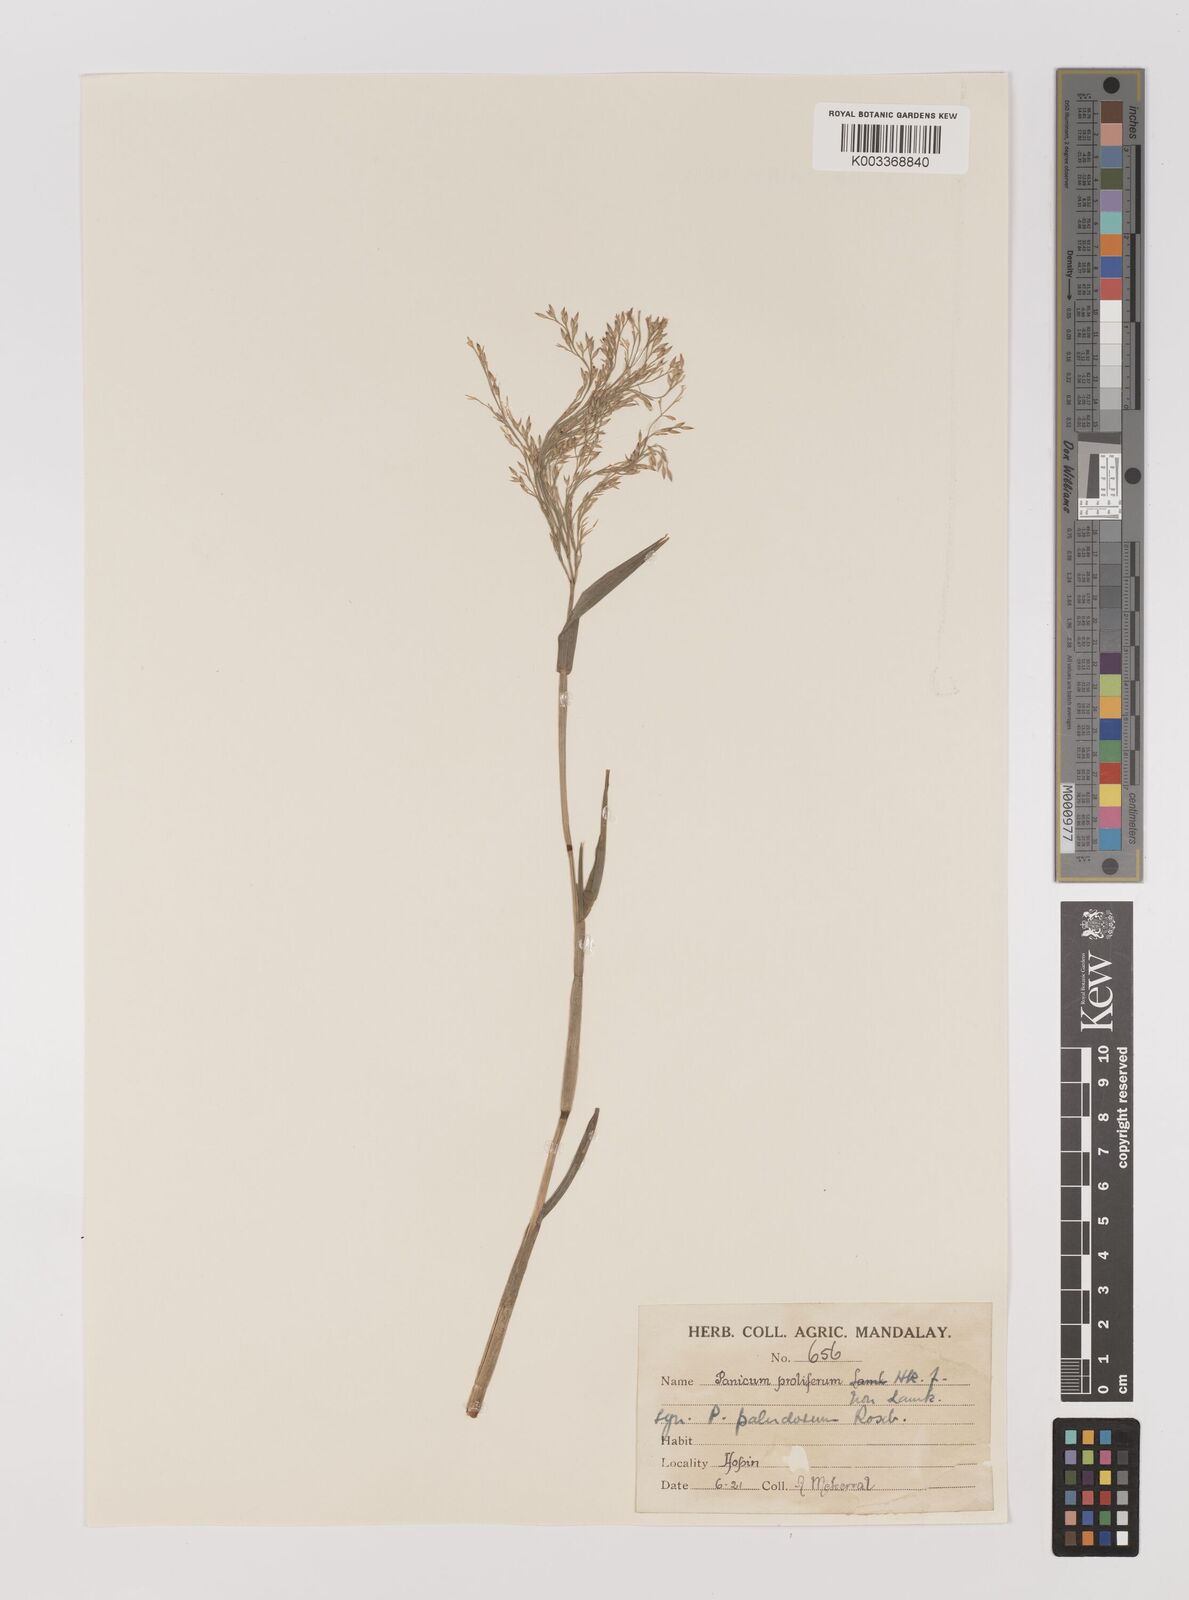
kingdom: Plantae
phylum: Tracheophyta
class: Liliopsida
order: Poales
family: Poaceae
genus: Louisiella
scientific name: Louisiella paludosa
